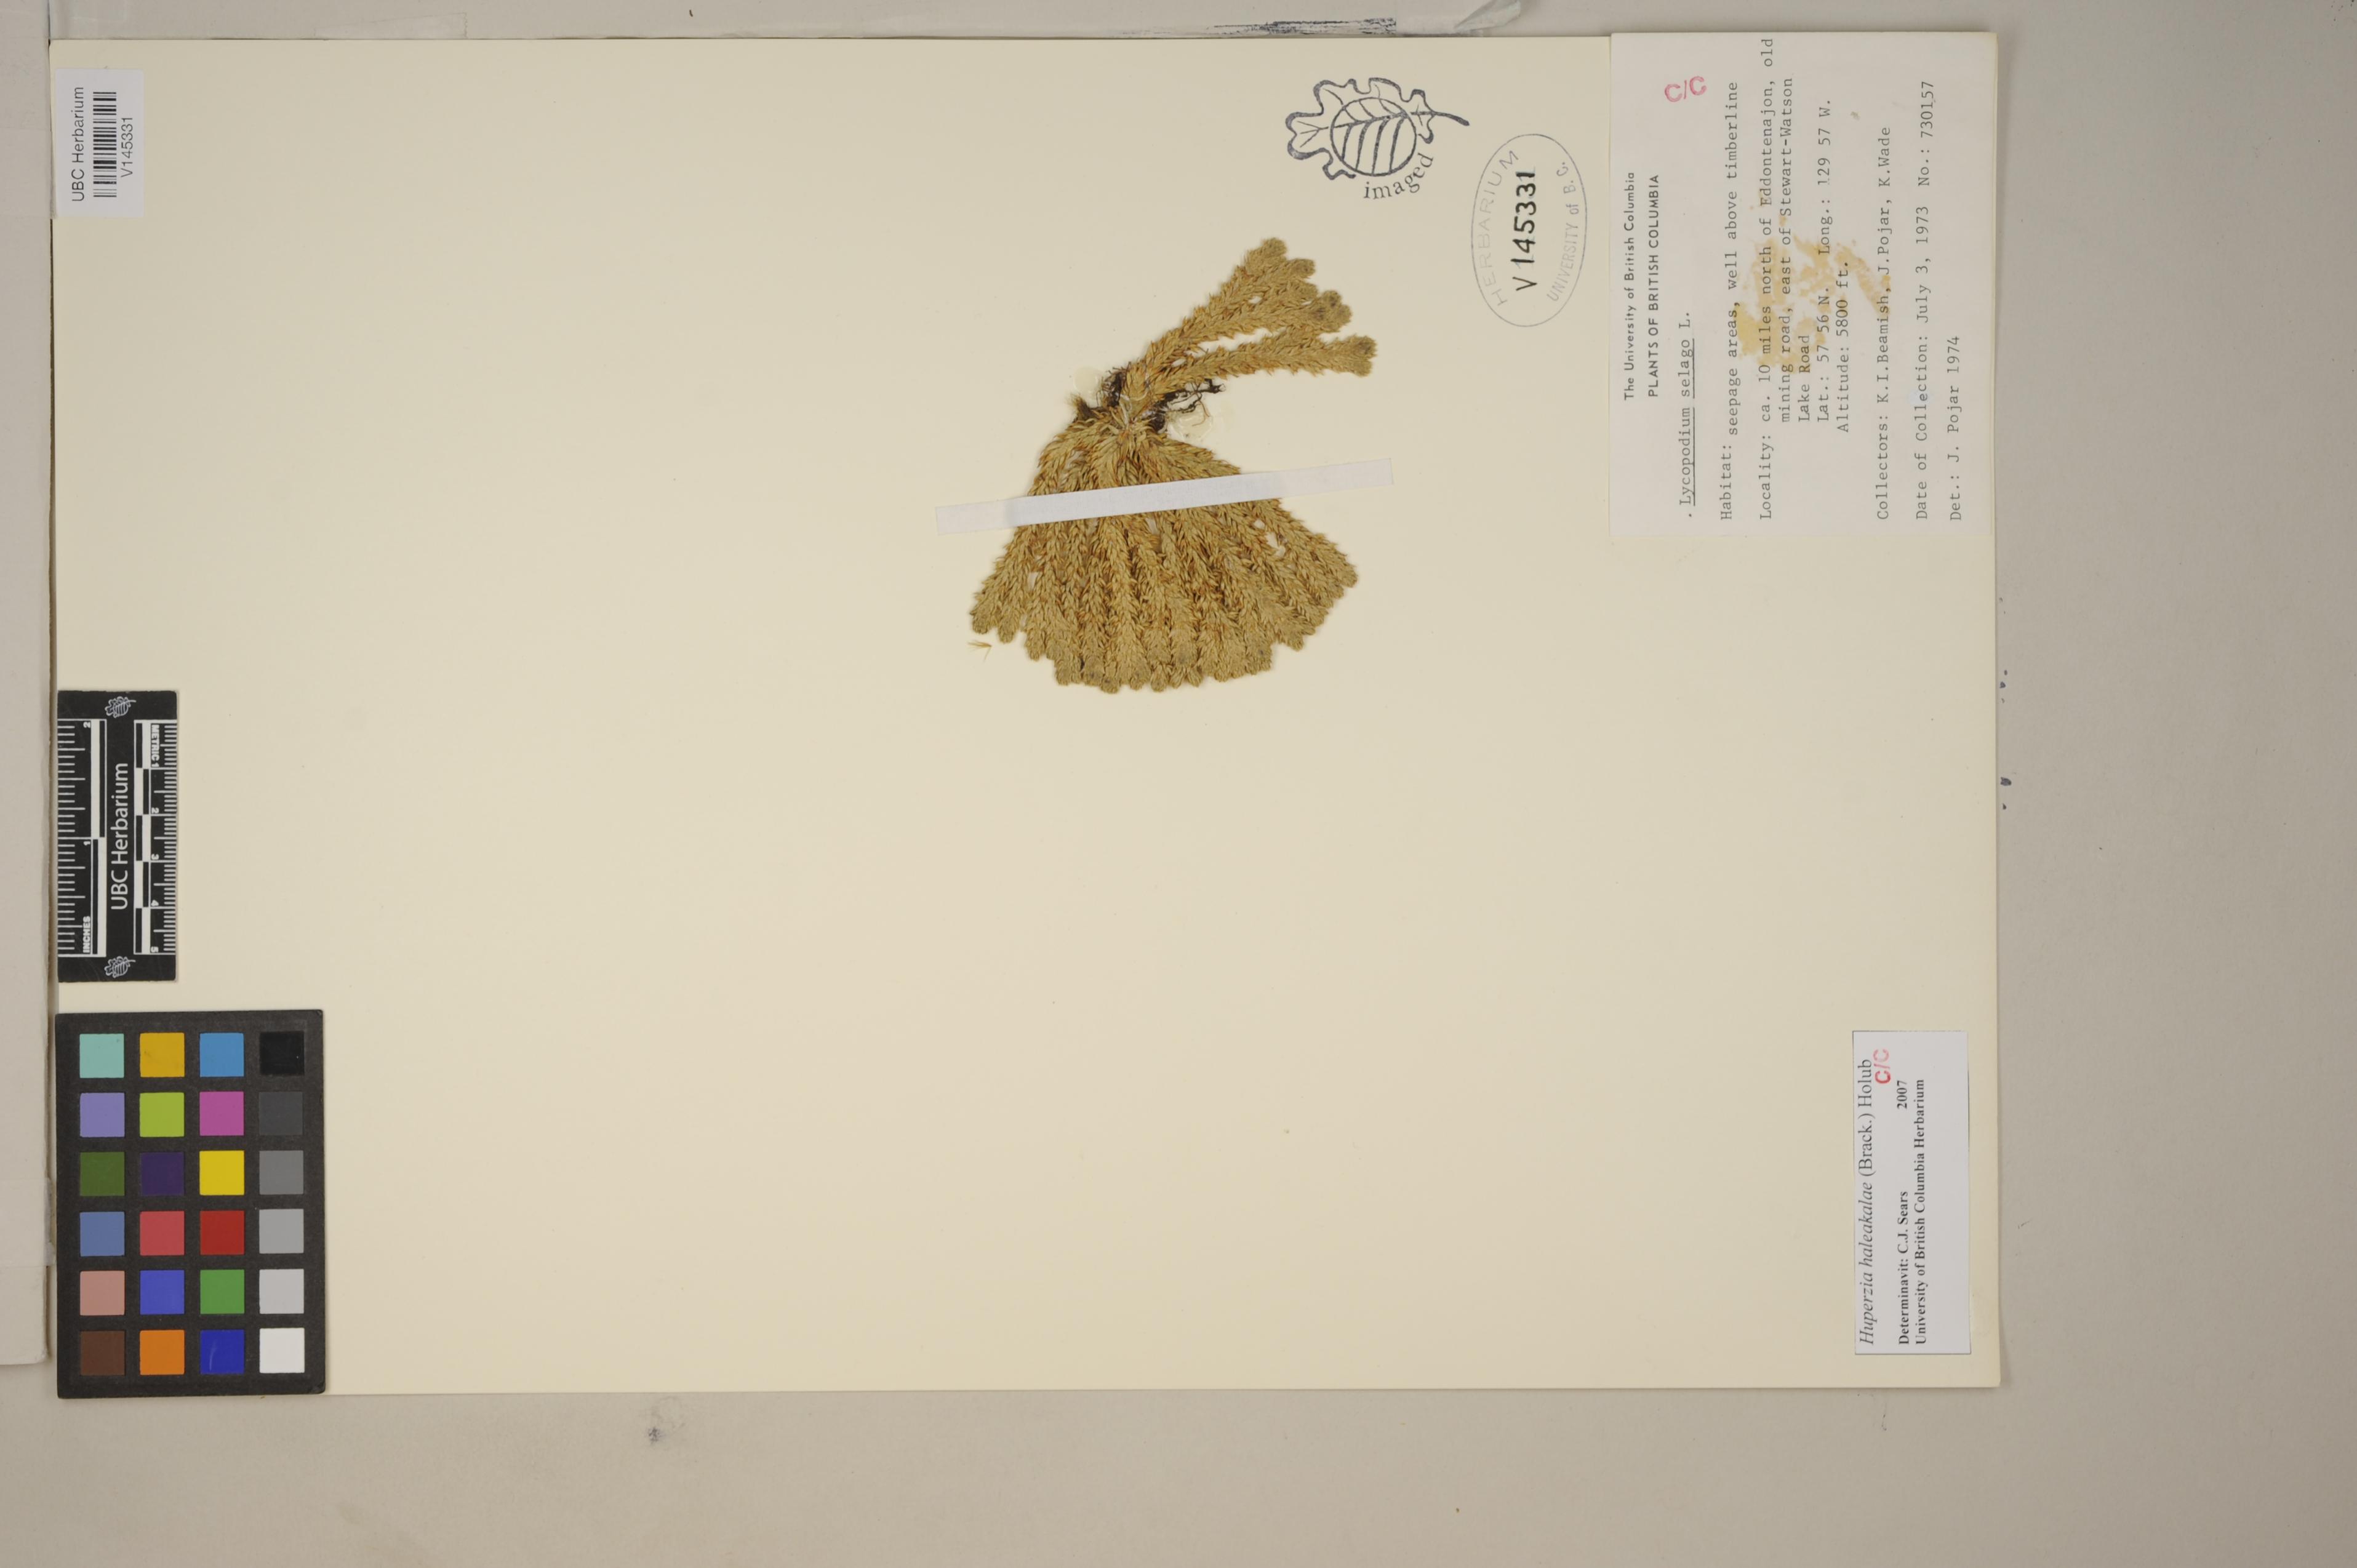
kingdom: Plantae
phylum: Tracheophyta
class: Lycopodiopsida
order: Lycopodiales
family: Lycopodiaceae
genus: Huperzia
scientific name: Huperzia selago
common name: Northern firmoss
